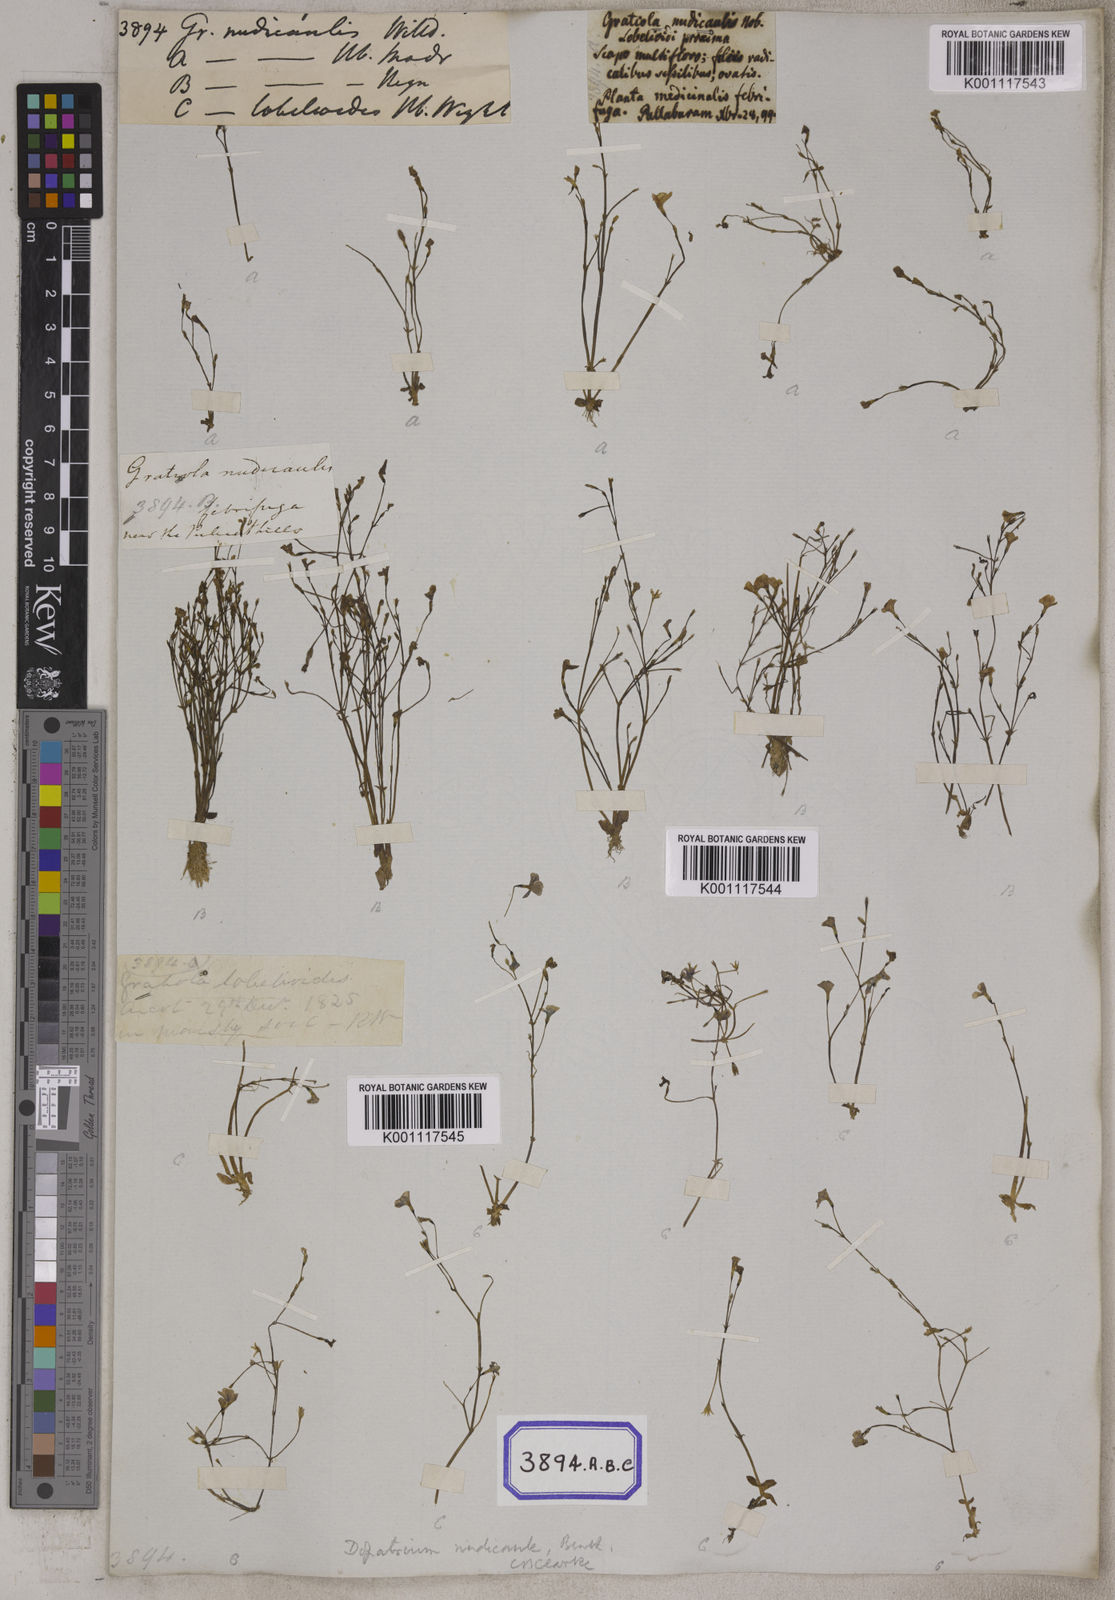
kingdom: Plantae
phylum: Tracheophyta
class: Magnoliopsida
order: Lamiales
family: Plantaginaceae
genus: Gratiola
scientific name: Gratiola
